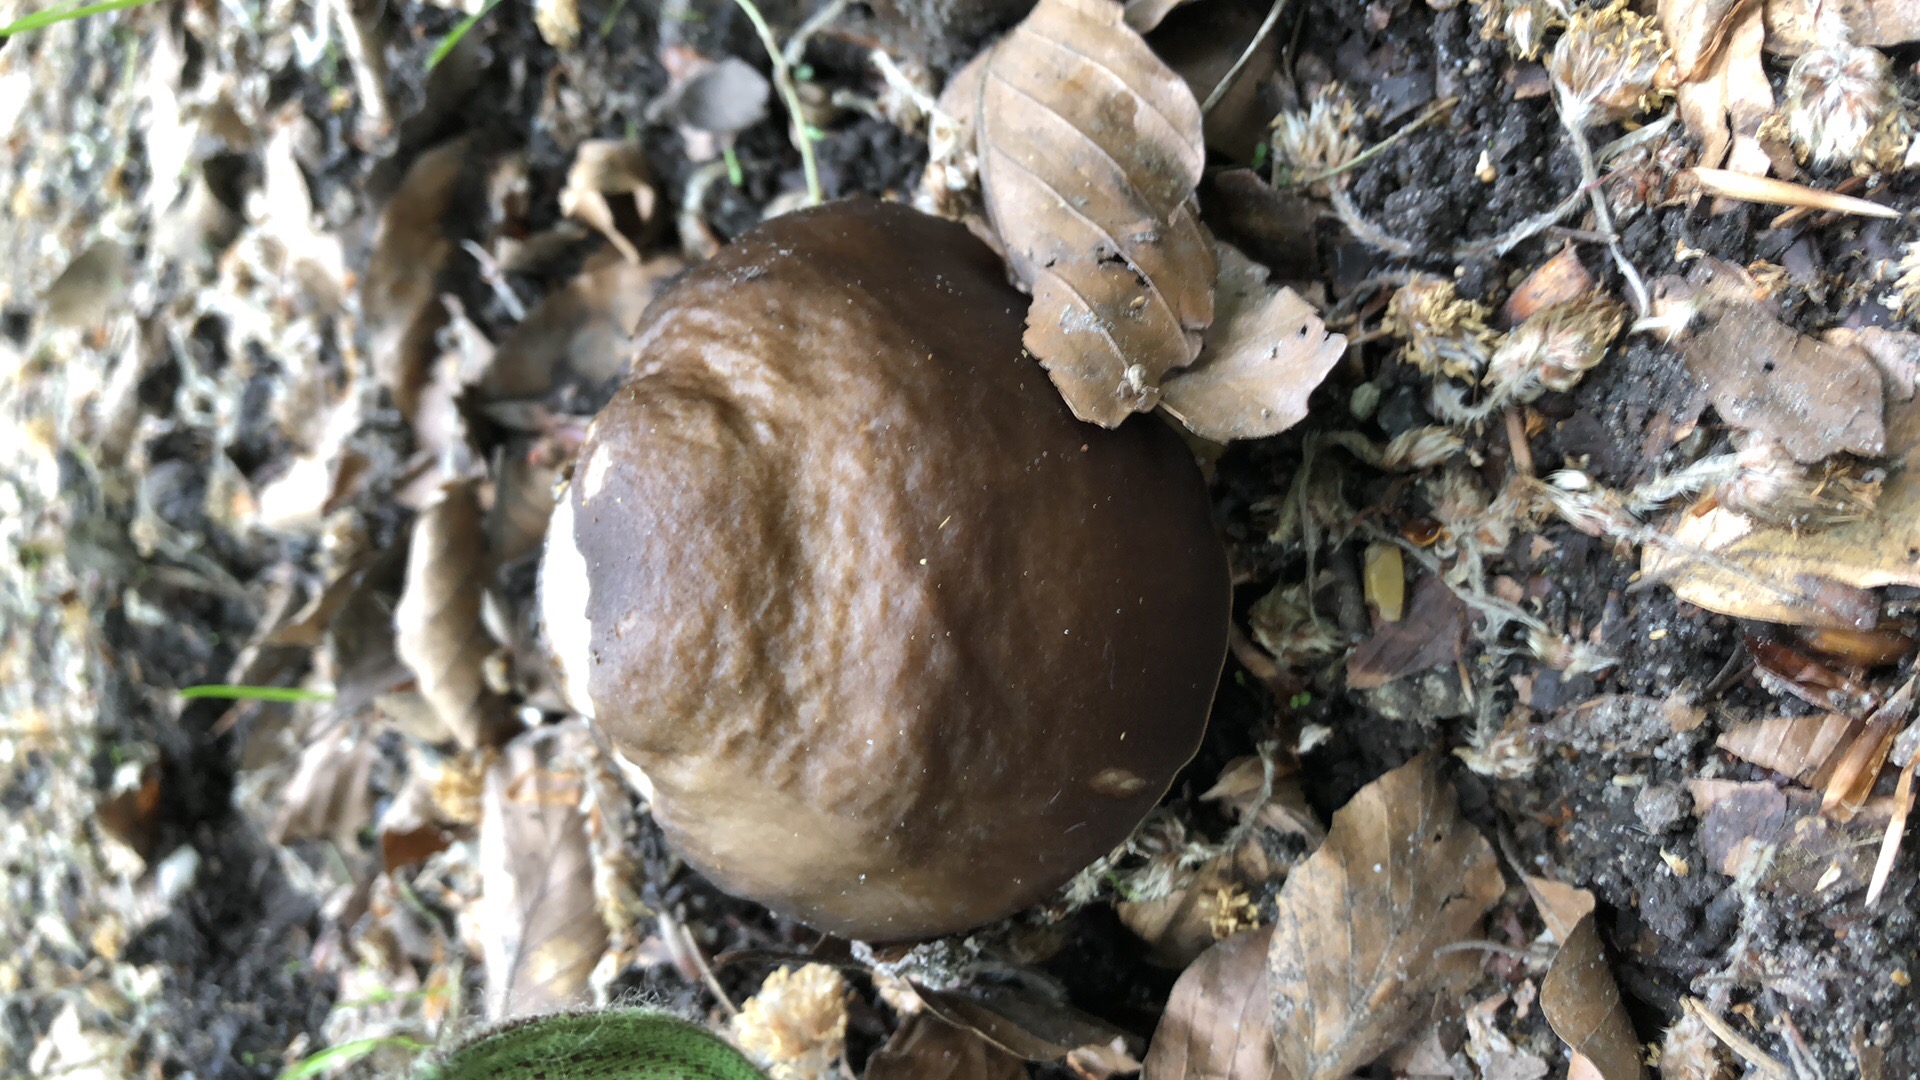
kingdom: Fungi
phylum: Basidiomycota
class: Agaricomycetes
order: Agaricales
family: Pluteaceae
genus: Pluteus
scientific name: Pluteus cervinus
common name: sodfarvet skærmhat
